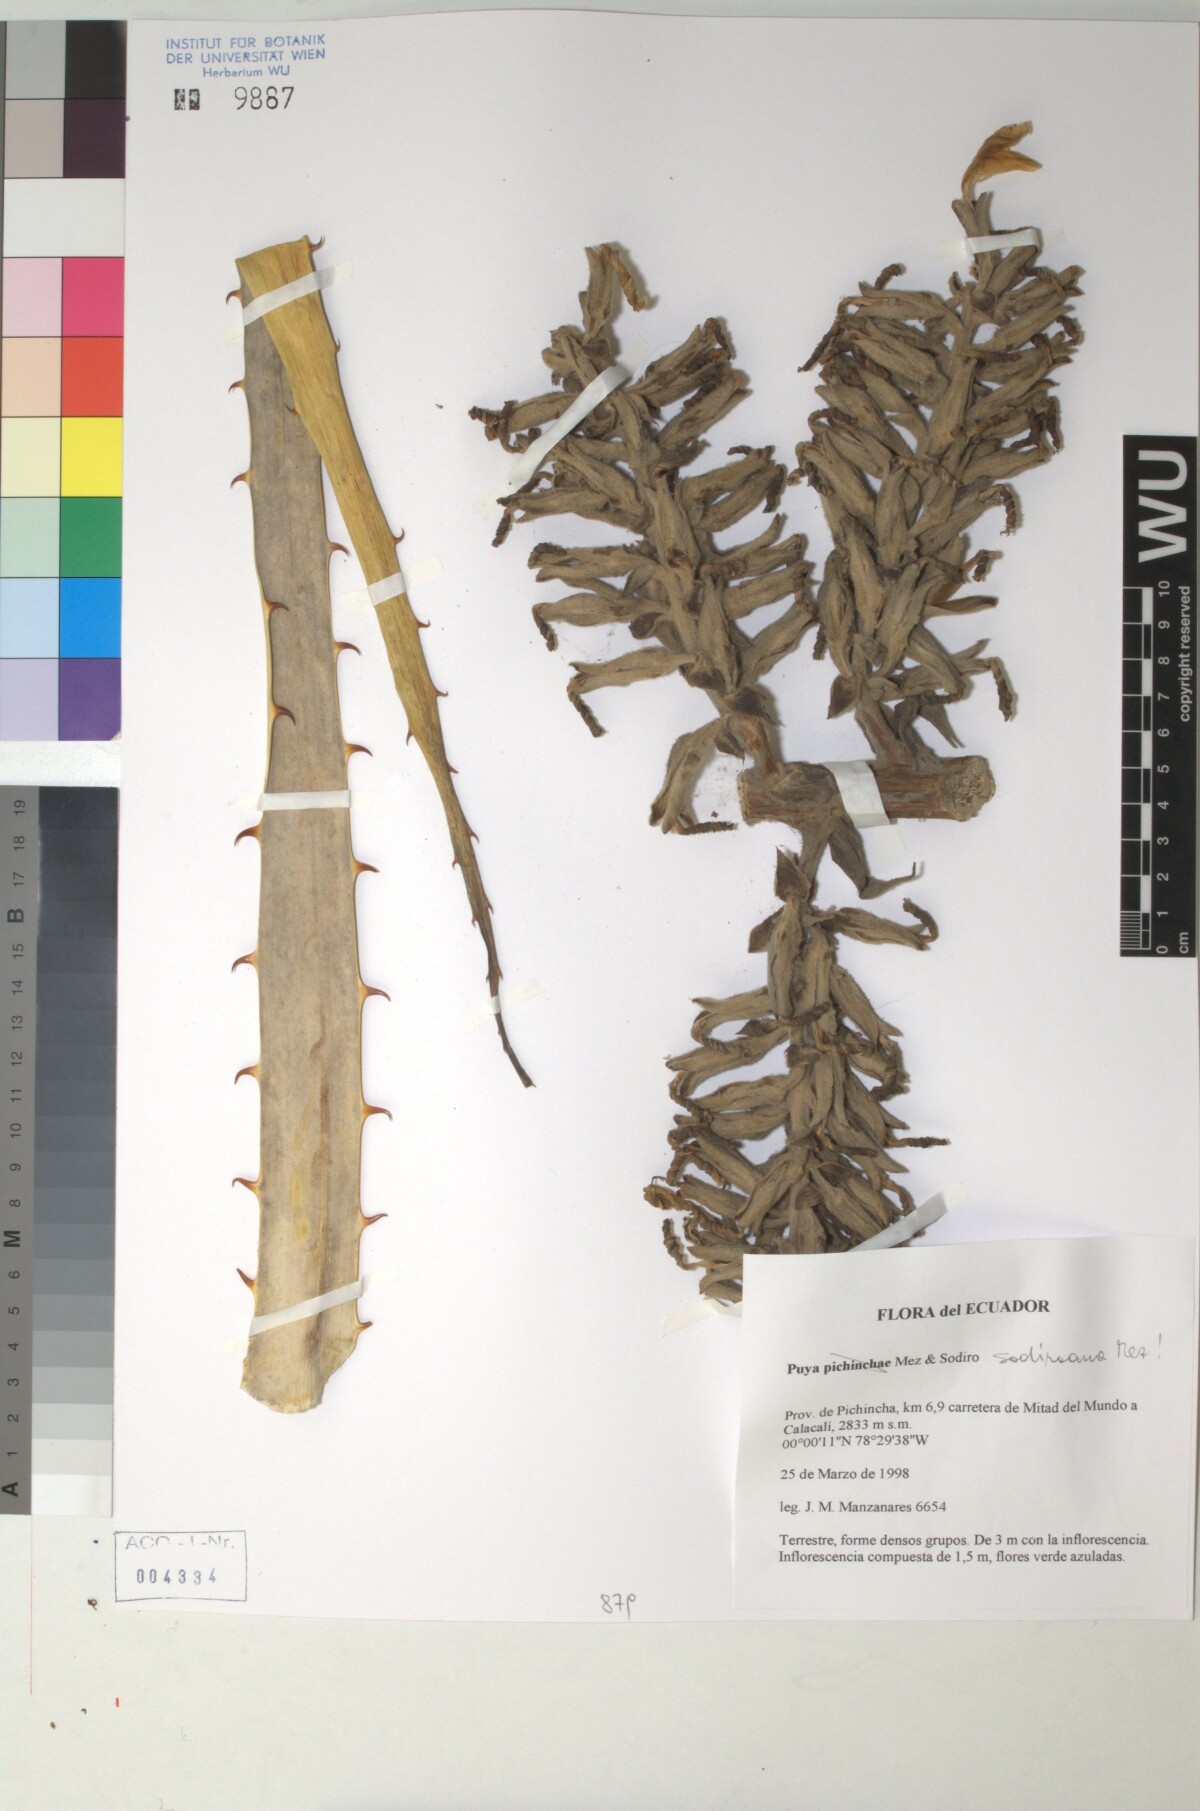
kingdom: Plantae
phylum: Tracheophyta
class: Liliopsida
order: Poales
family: Bromeliaceae
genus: Puya
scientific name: Puya sodiroana
